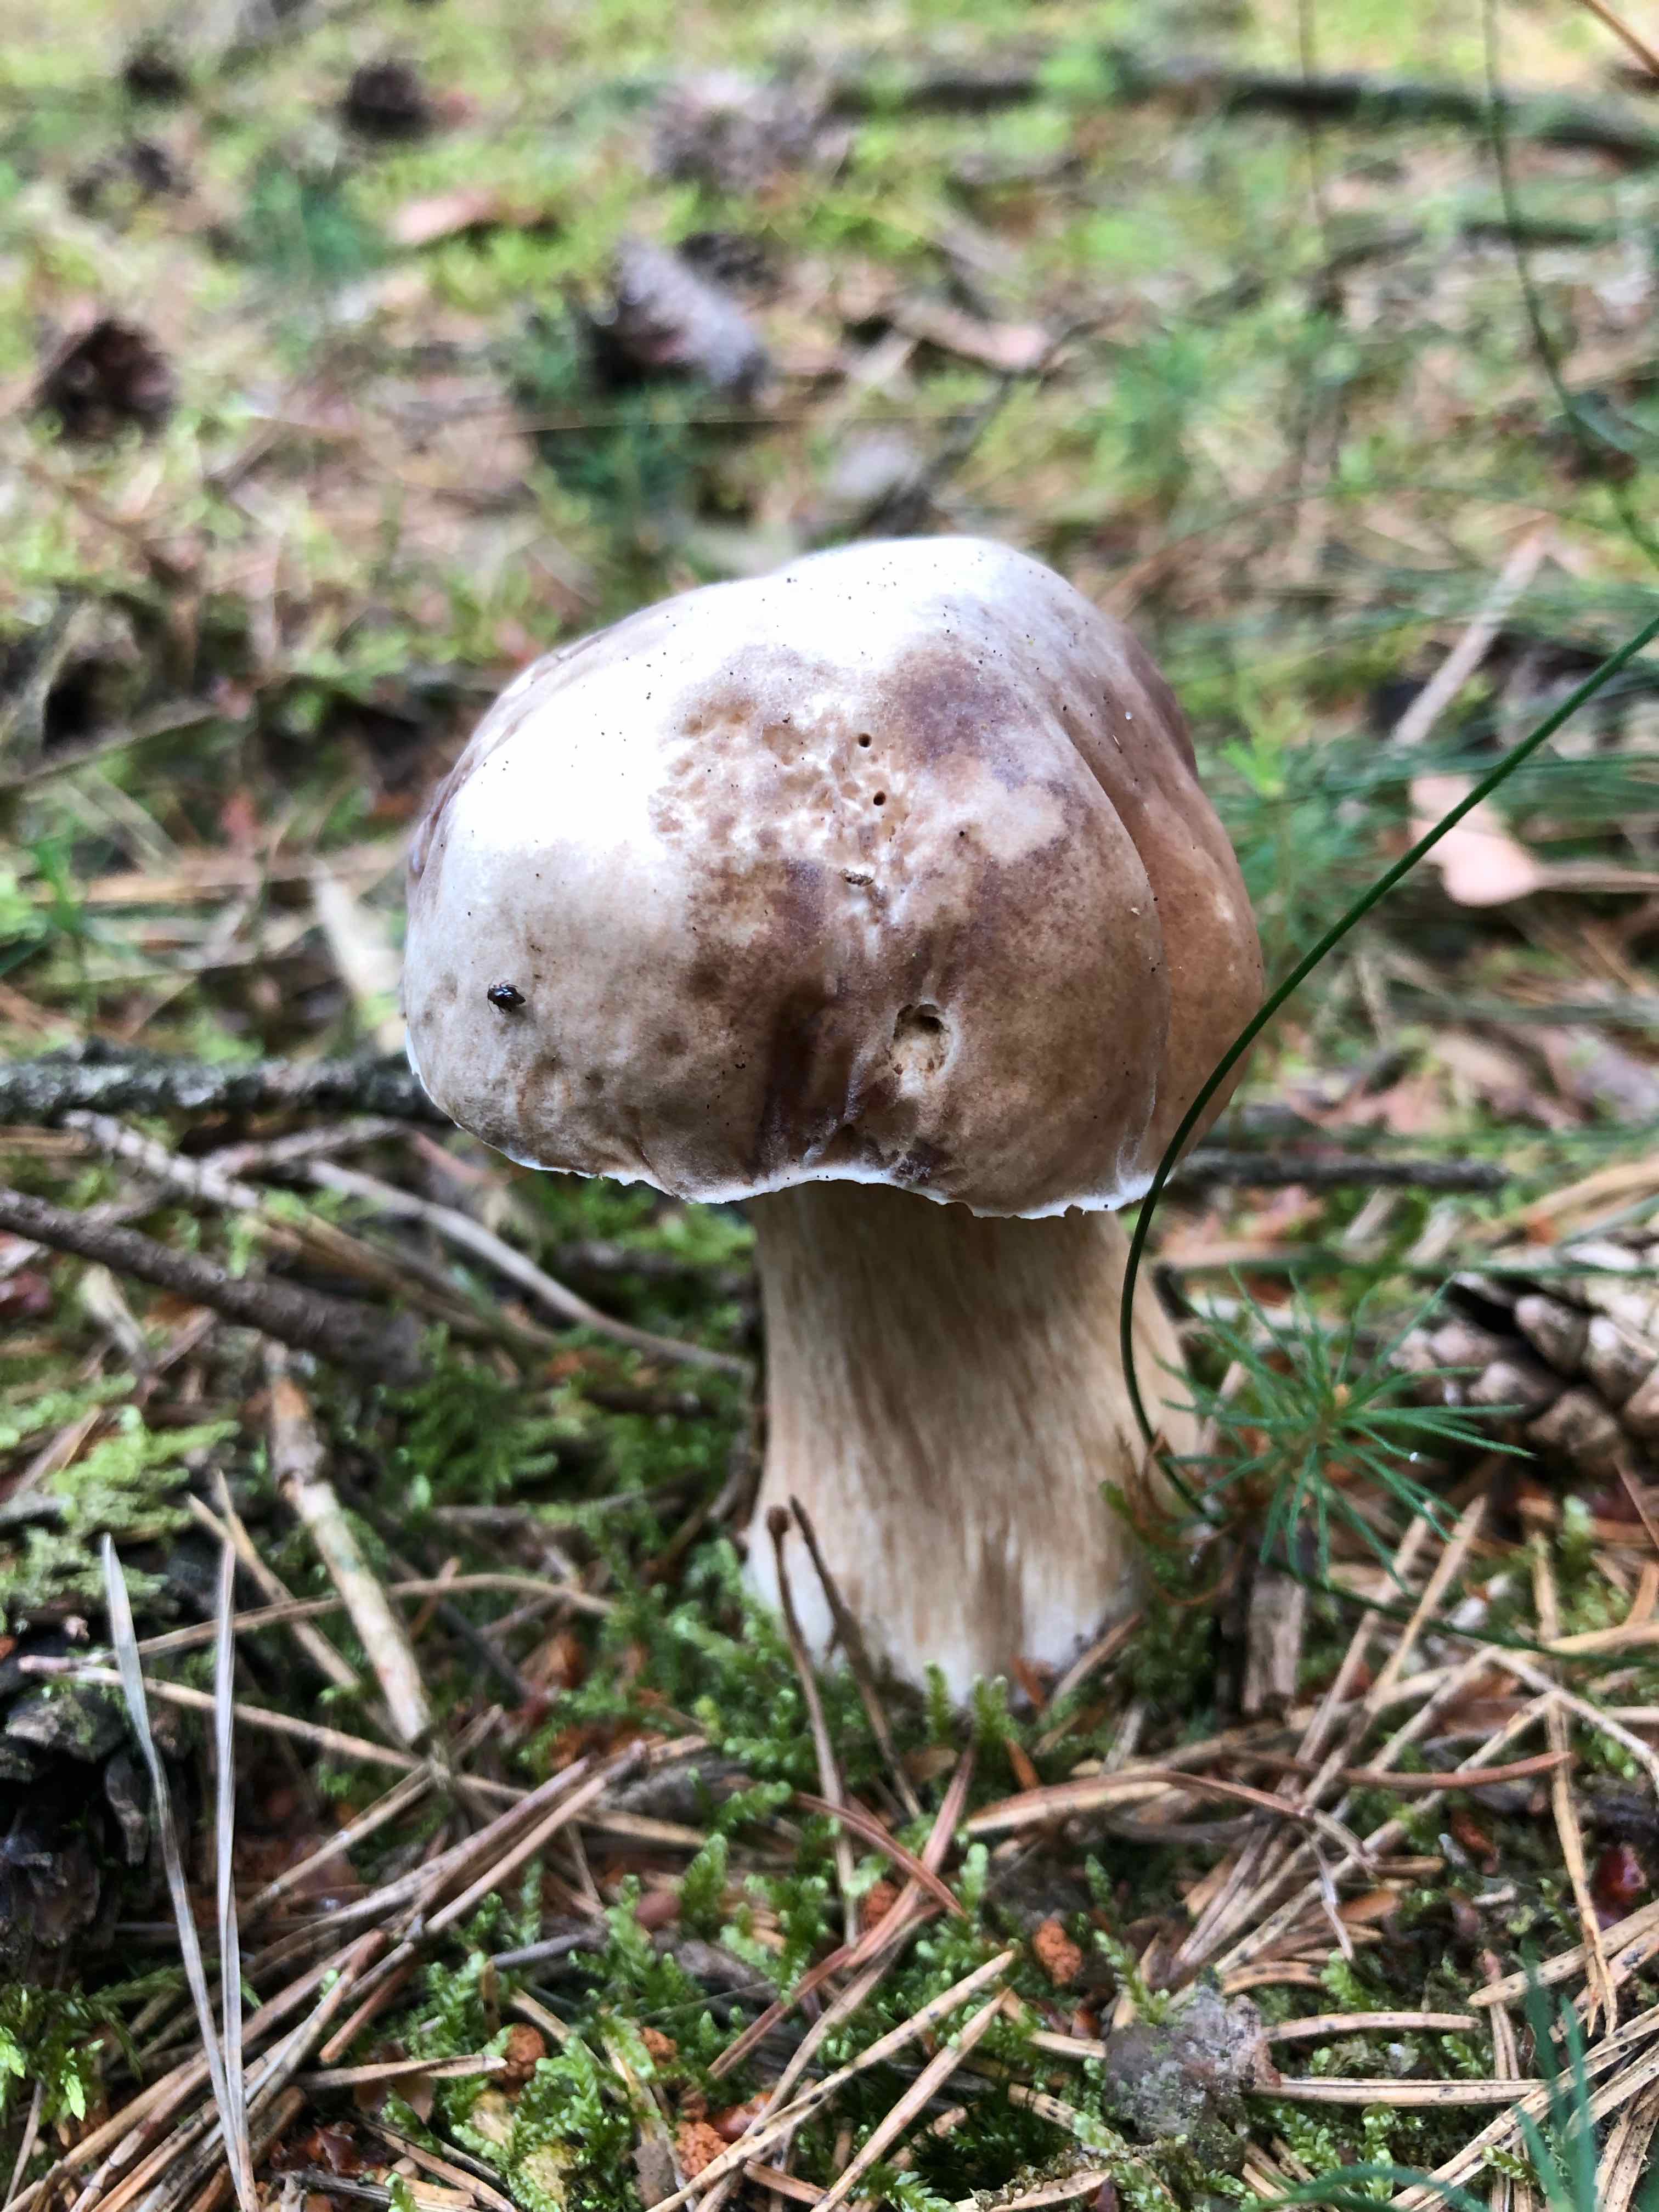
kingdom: Fungi
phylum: Basidiomycota
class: Agaricomycetes
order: Boletales
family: Boletaceae
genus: Boletus
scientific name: Boletus edulis
